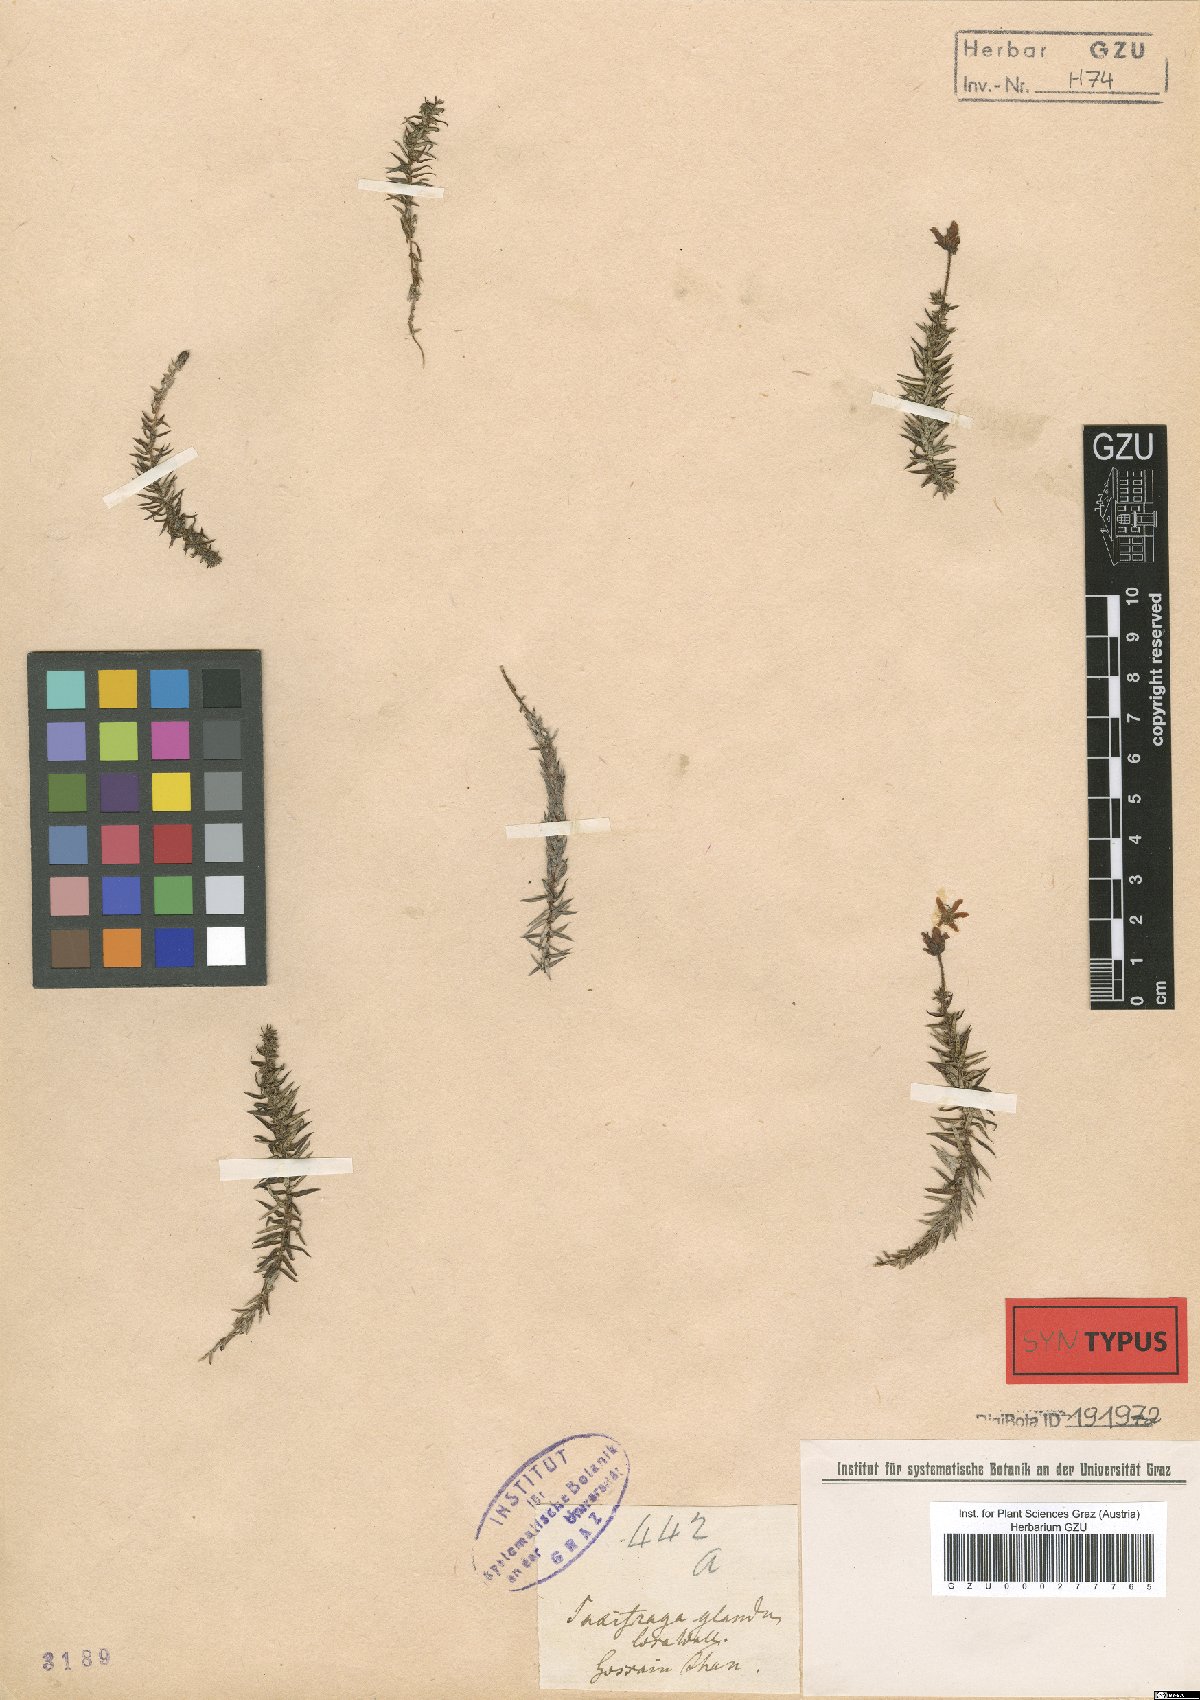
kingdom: Plantae
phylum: Tracheophyta
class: Magnoliopsida
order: Saxifragales
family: Saxifragaceae
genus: Saxifraga
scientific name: Saxifraga bronchialis
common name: Matted saxifrage
